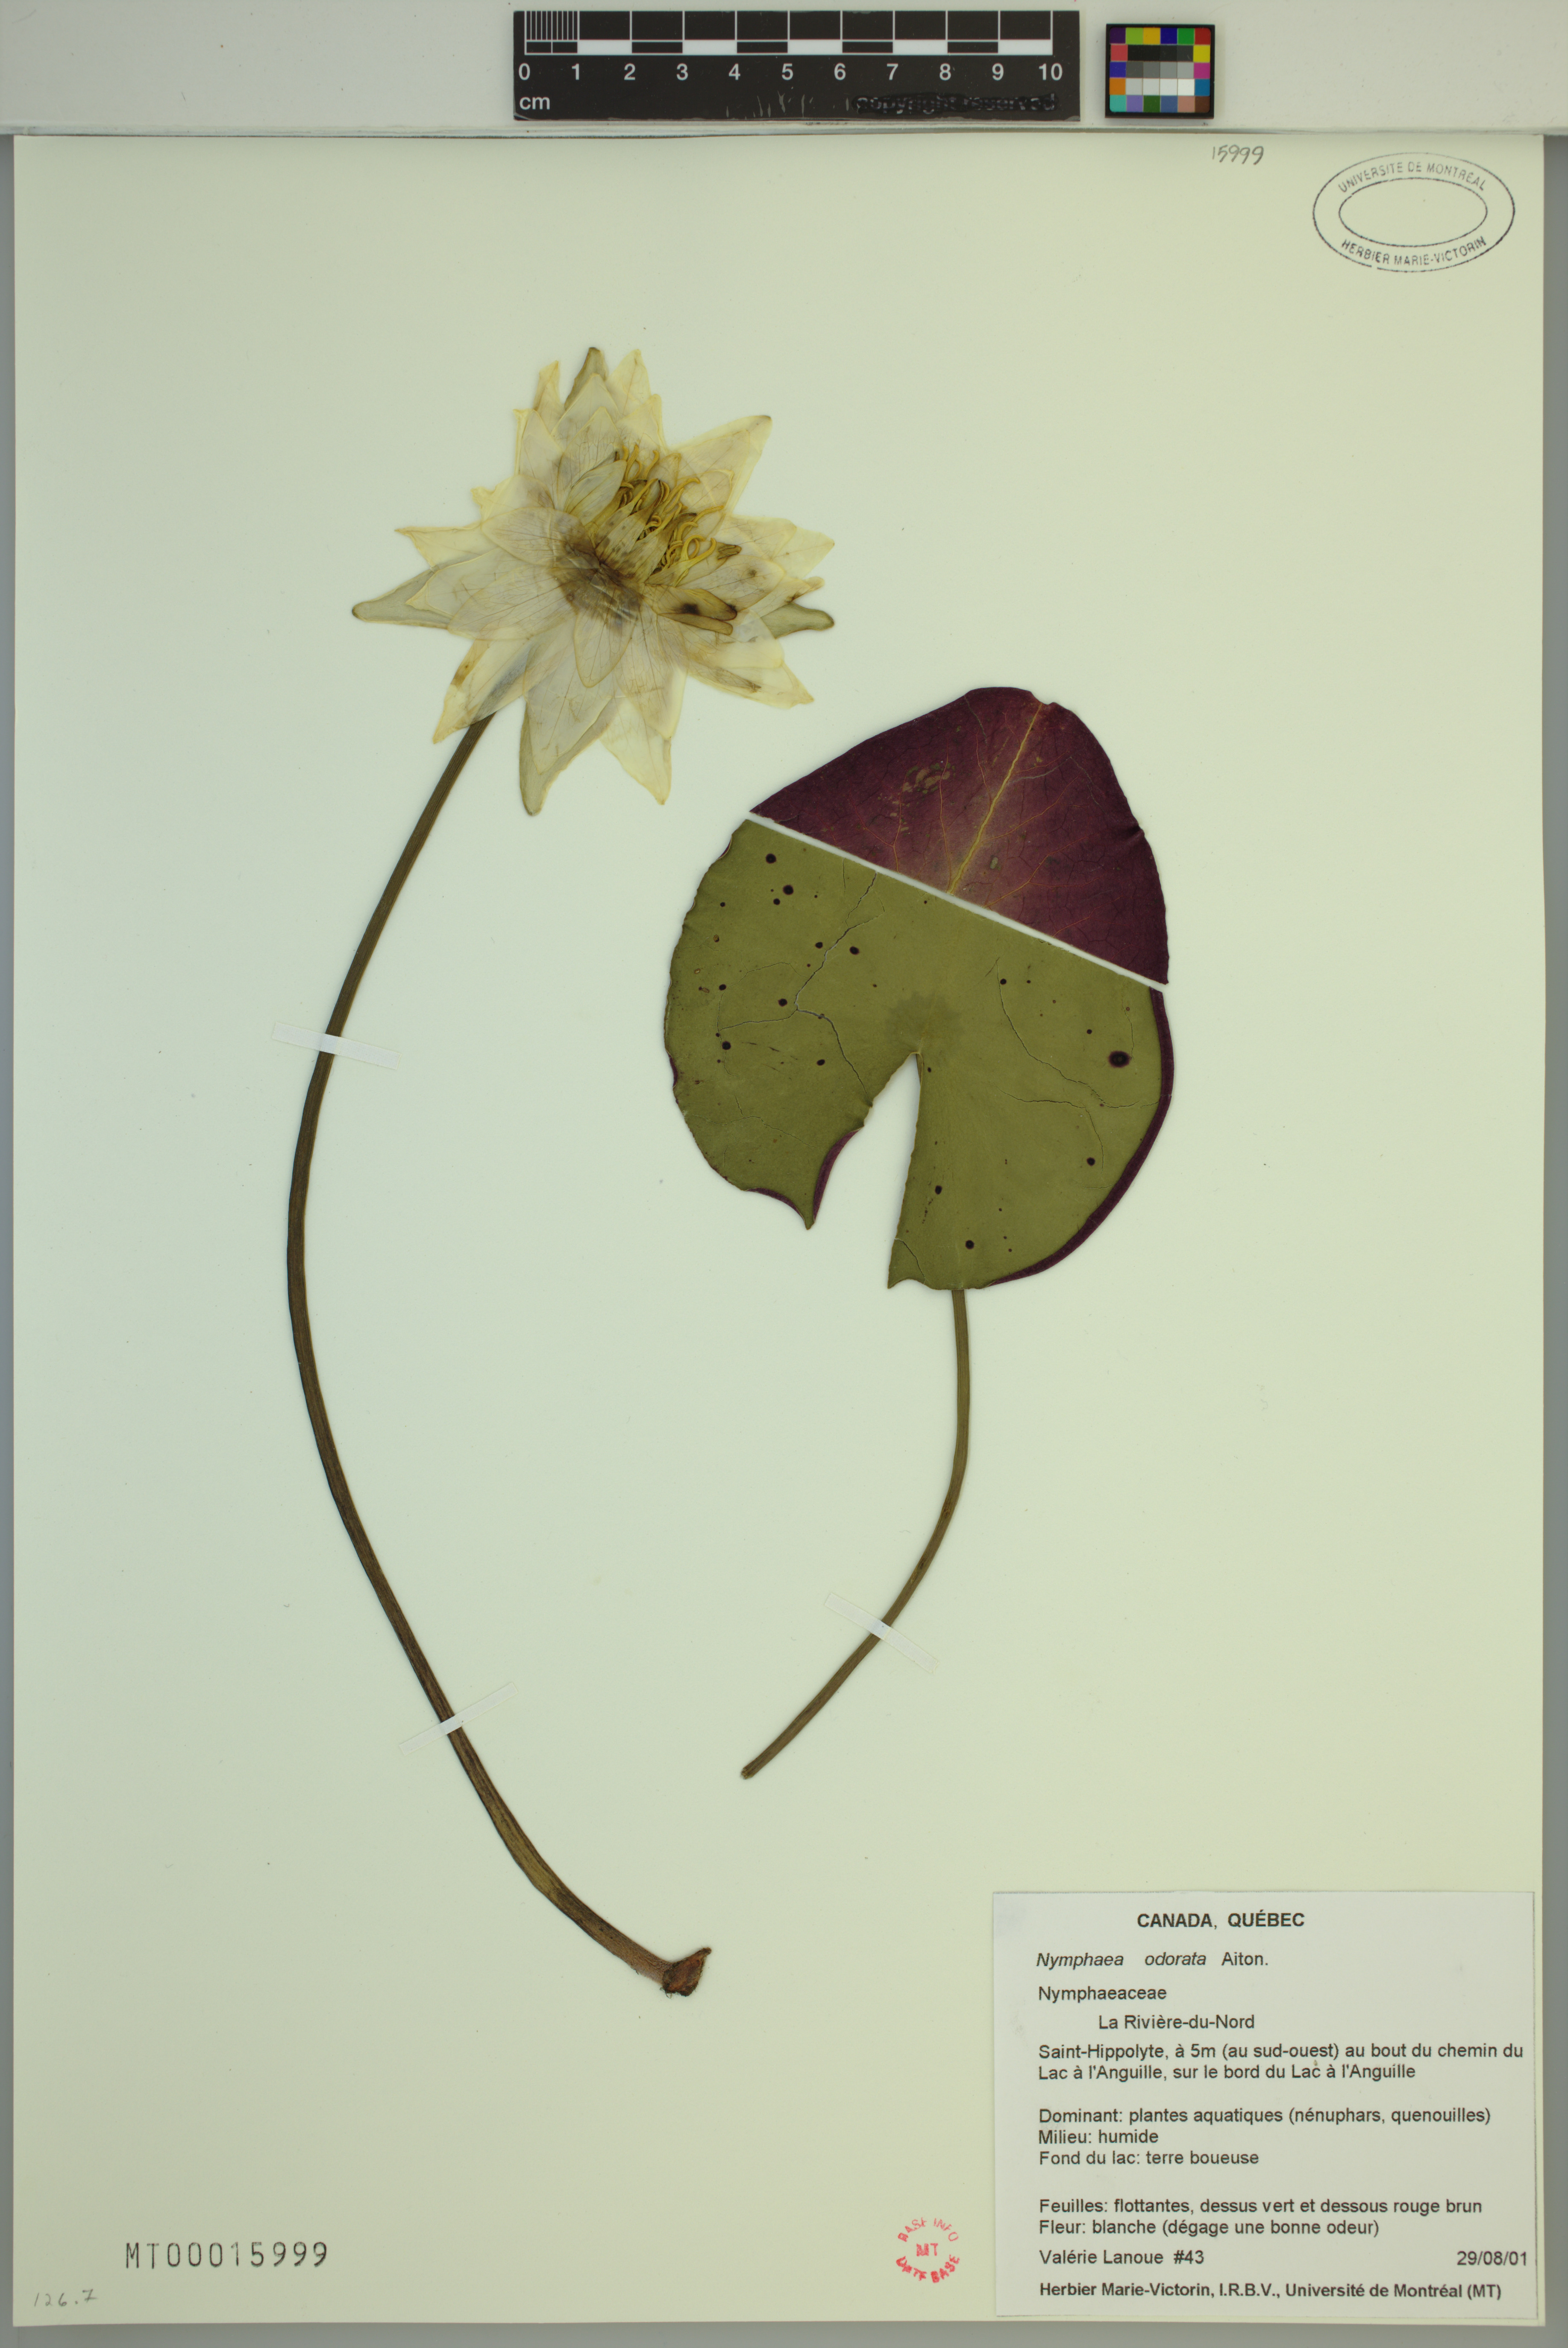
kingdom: Plantae
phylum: Tracheophyta
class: Magnoliopsida
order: Nymphaeales
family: Nymphaeaceae
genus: Nymphaea
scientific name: Nymphaea odorata
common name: Fragrant water-lily
